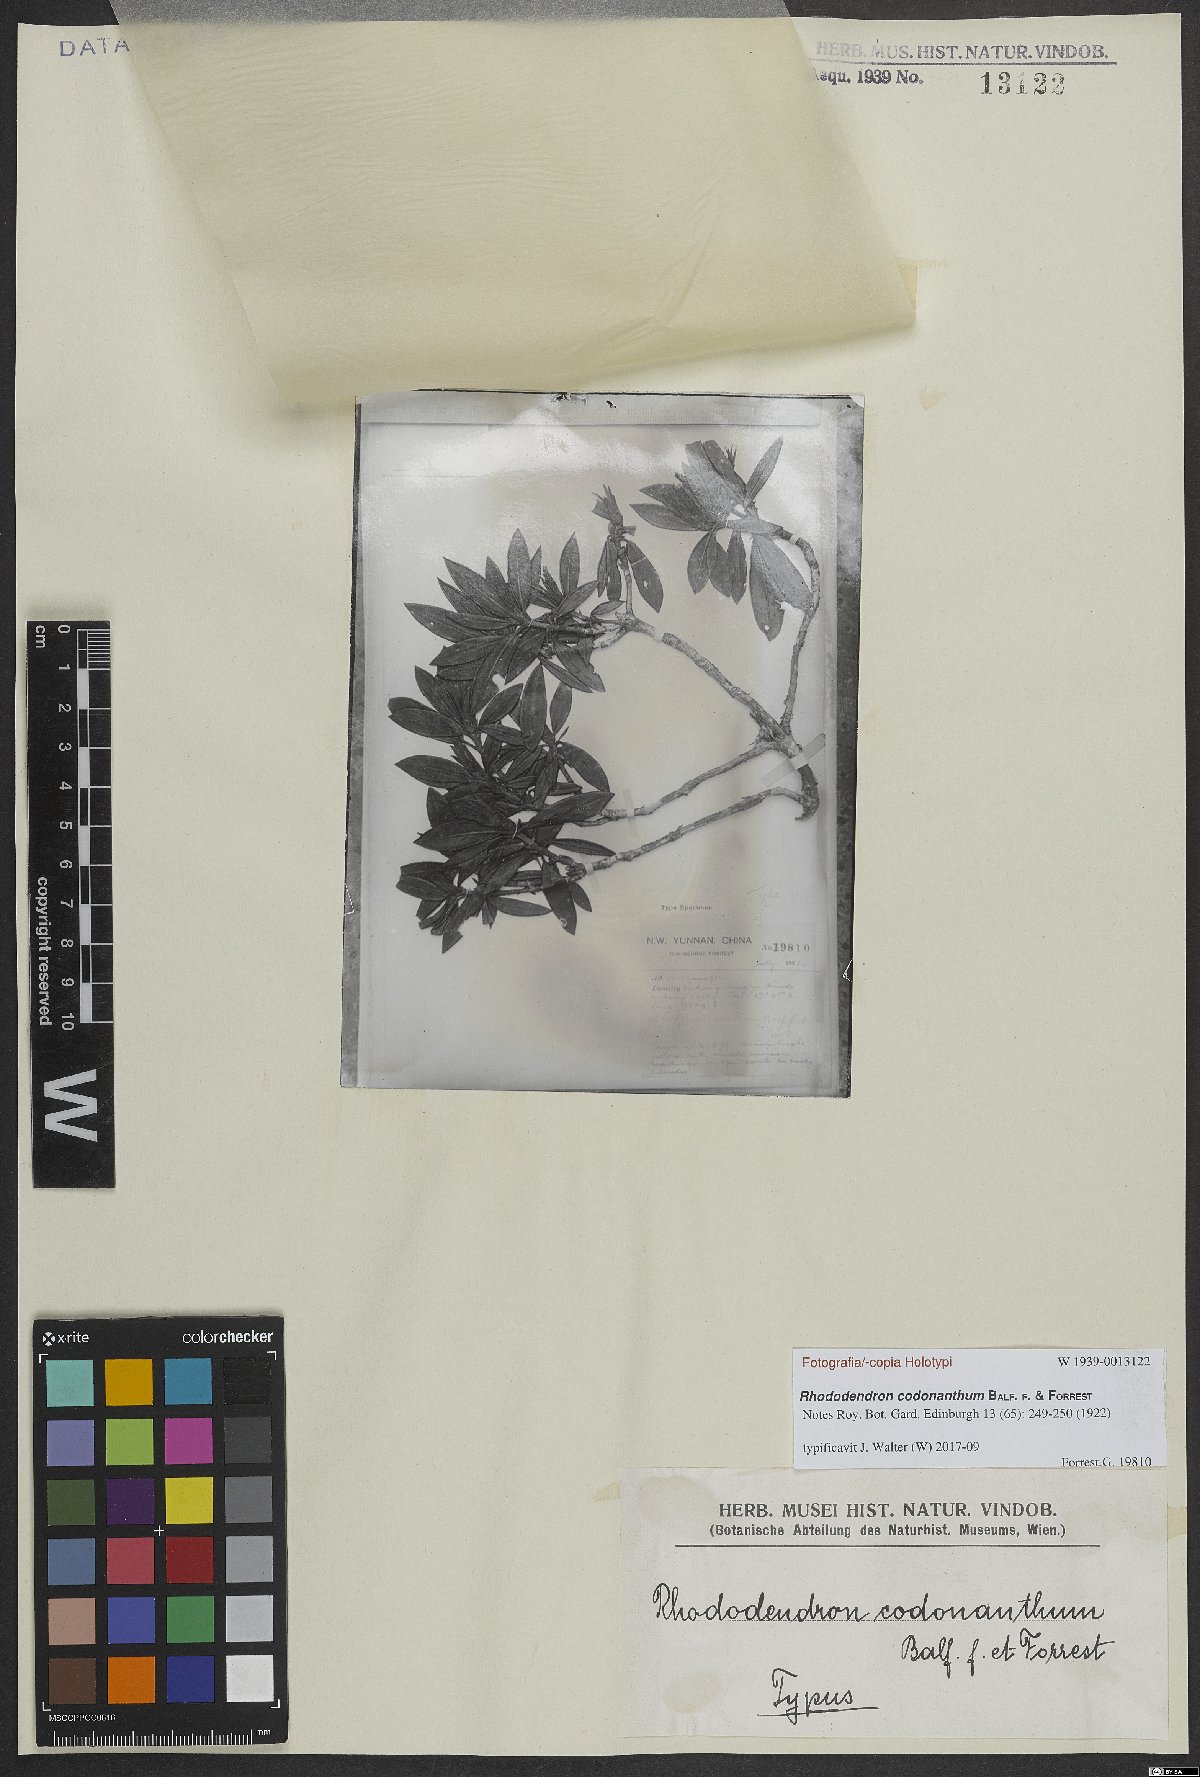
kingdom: Plantae
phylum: Tracheophyta
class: Magnoliopsida
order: Ericales
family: Ericaceae
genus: Rhododendron
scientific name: Rhododendron codonanthum
